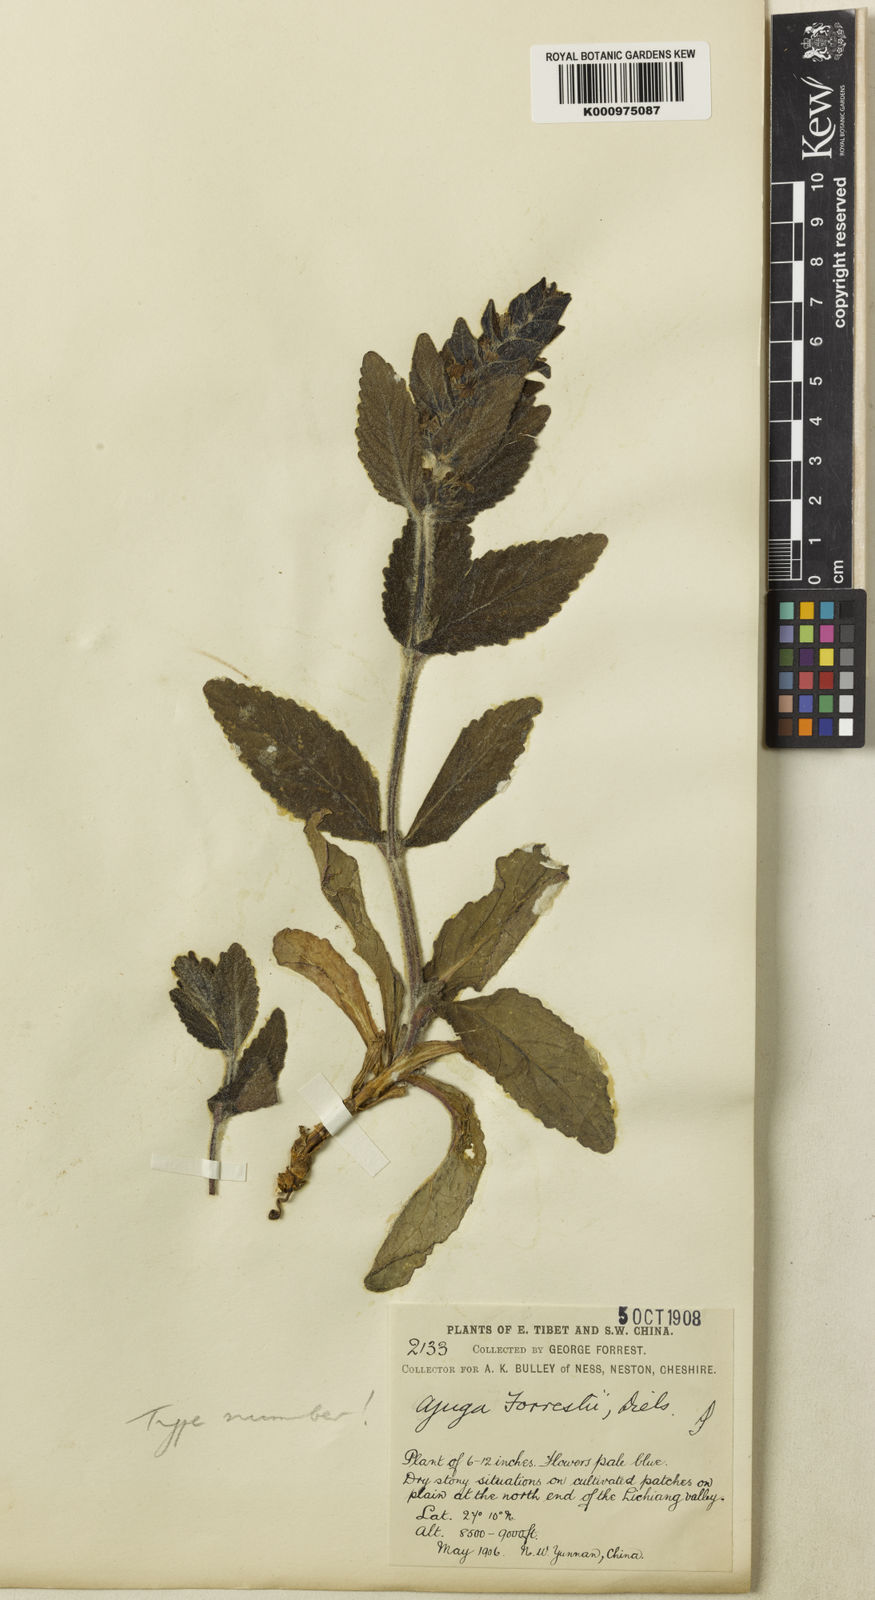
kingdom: Plantae
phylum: Tracheophyta
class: Magnoliopsida
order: Lamiales
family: Lamiaceae
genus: Ajuga
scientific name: Ajuga forrestii
